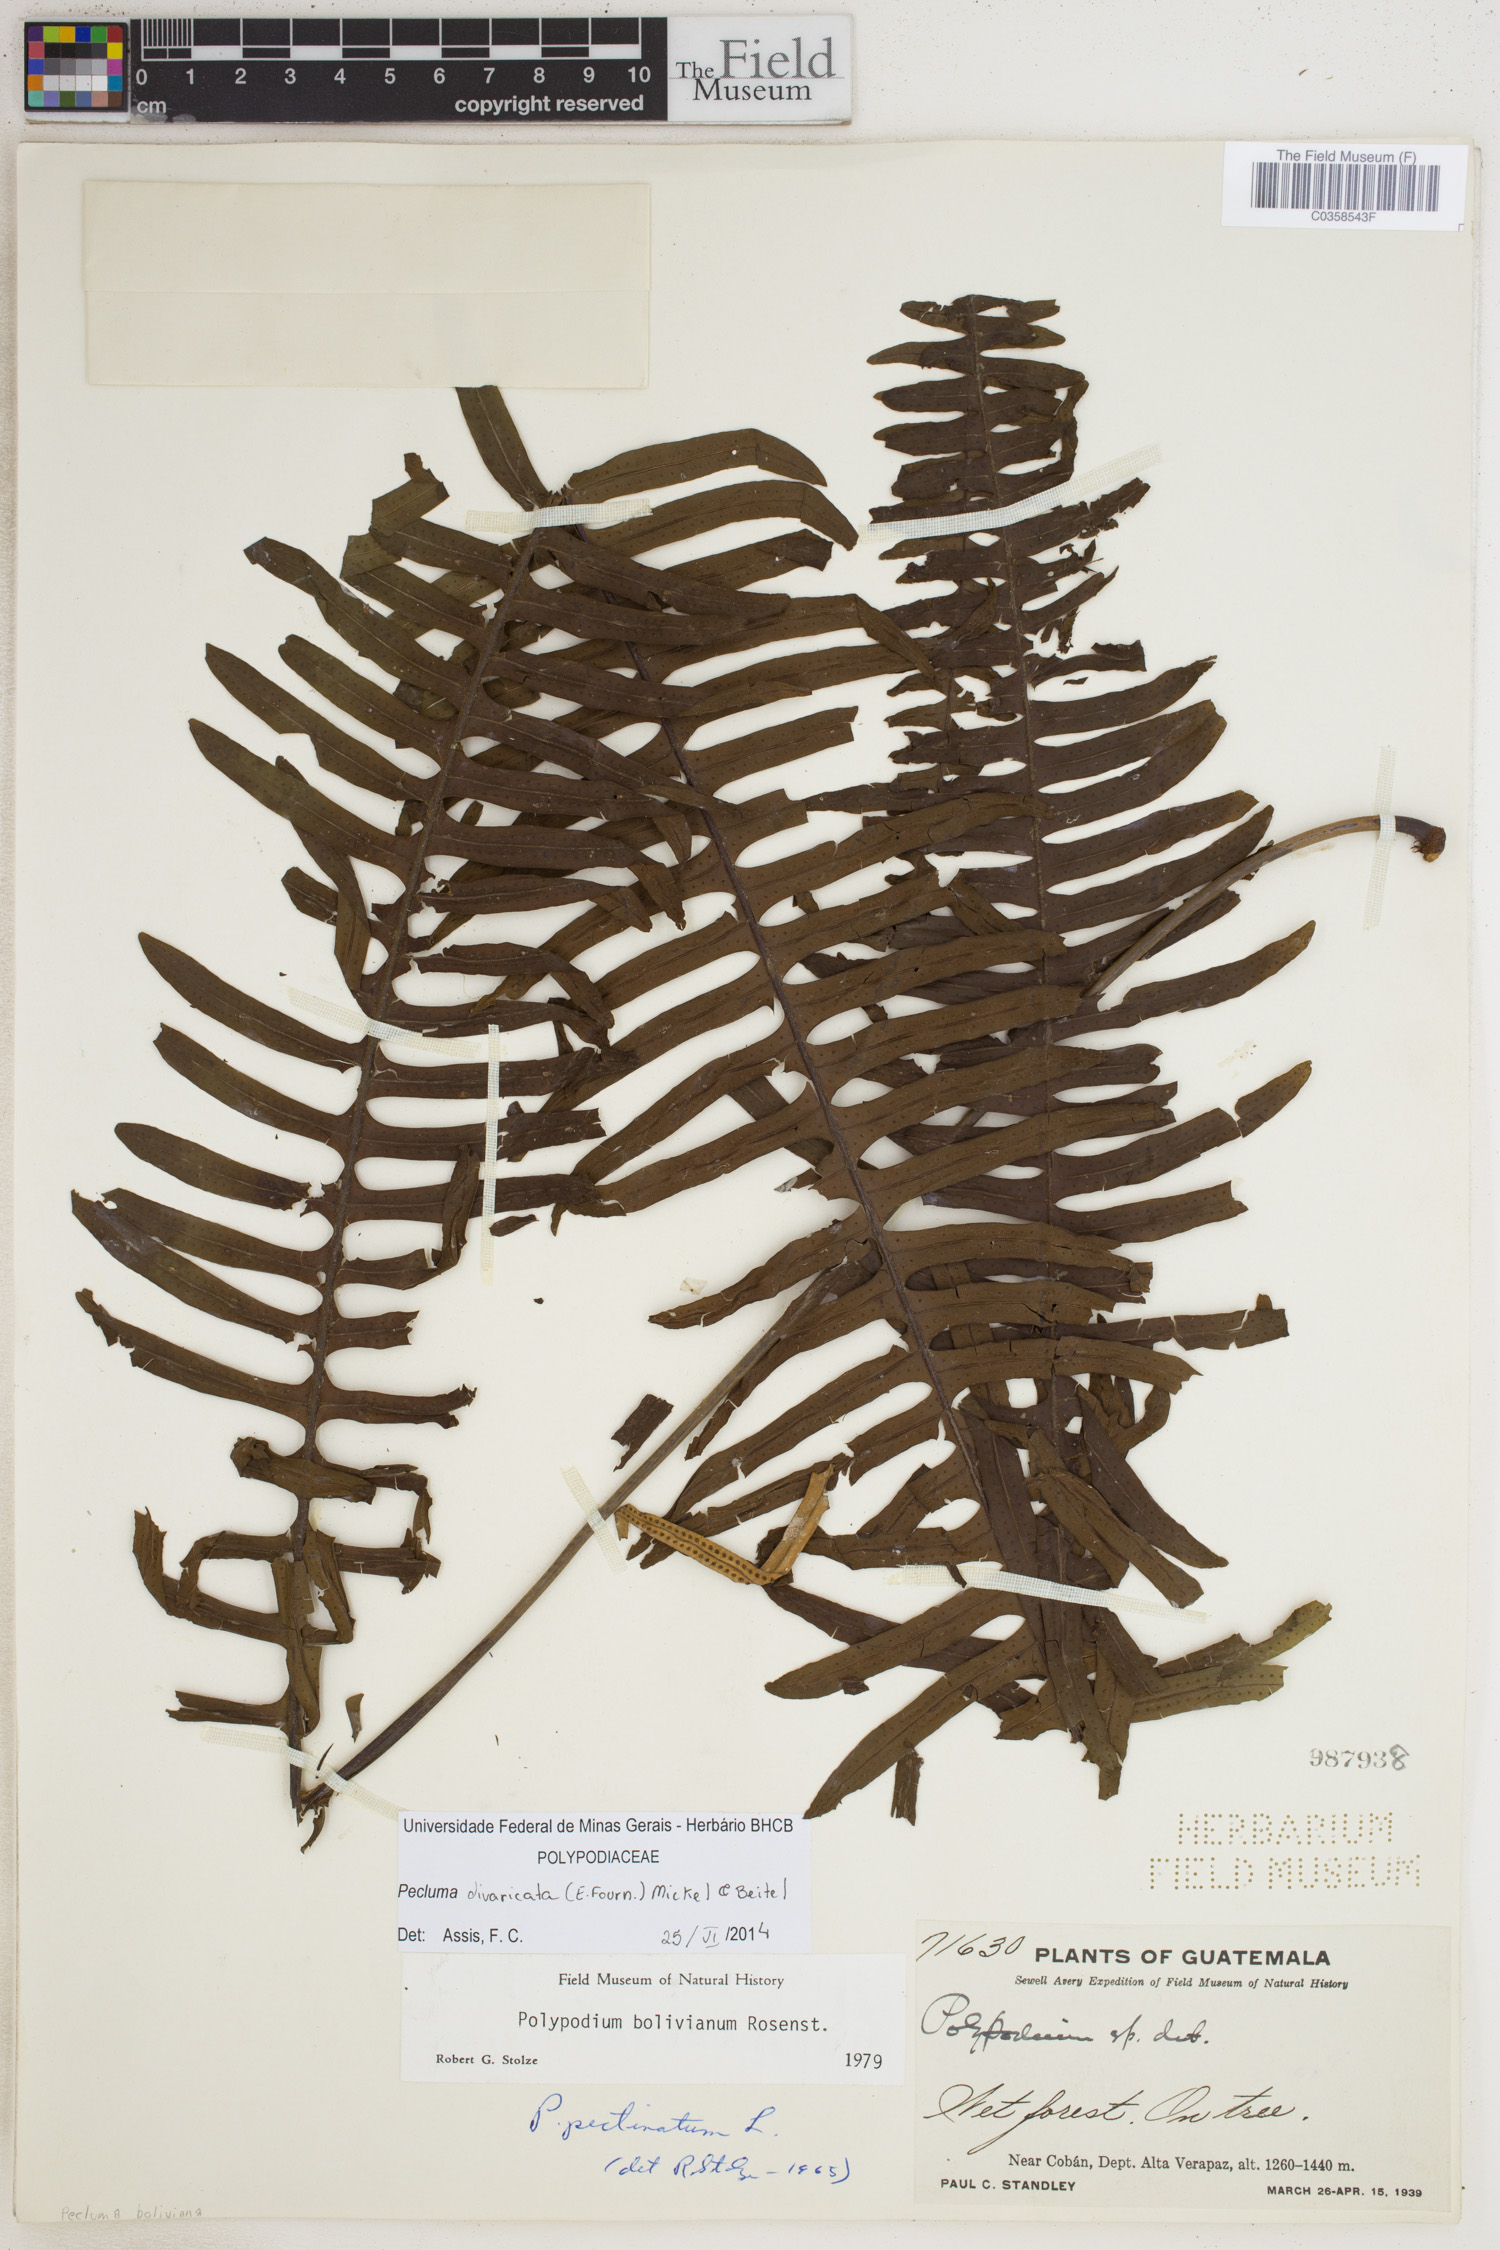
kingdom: Plantae
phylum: Tracheophyta
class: Polypodiopsida
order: Polypodiales
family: Polypodiaceae
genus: Pecluma
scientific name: Pecluma divaricata
